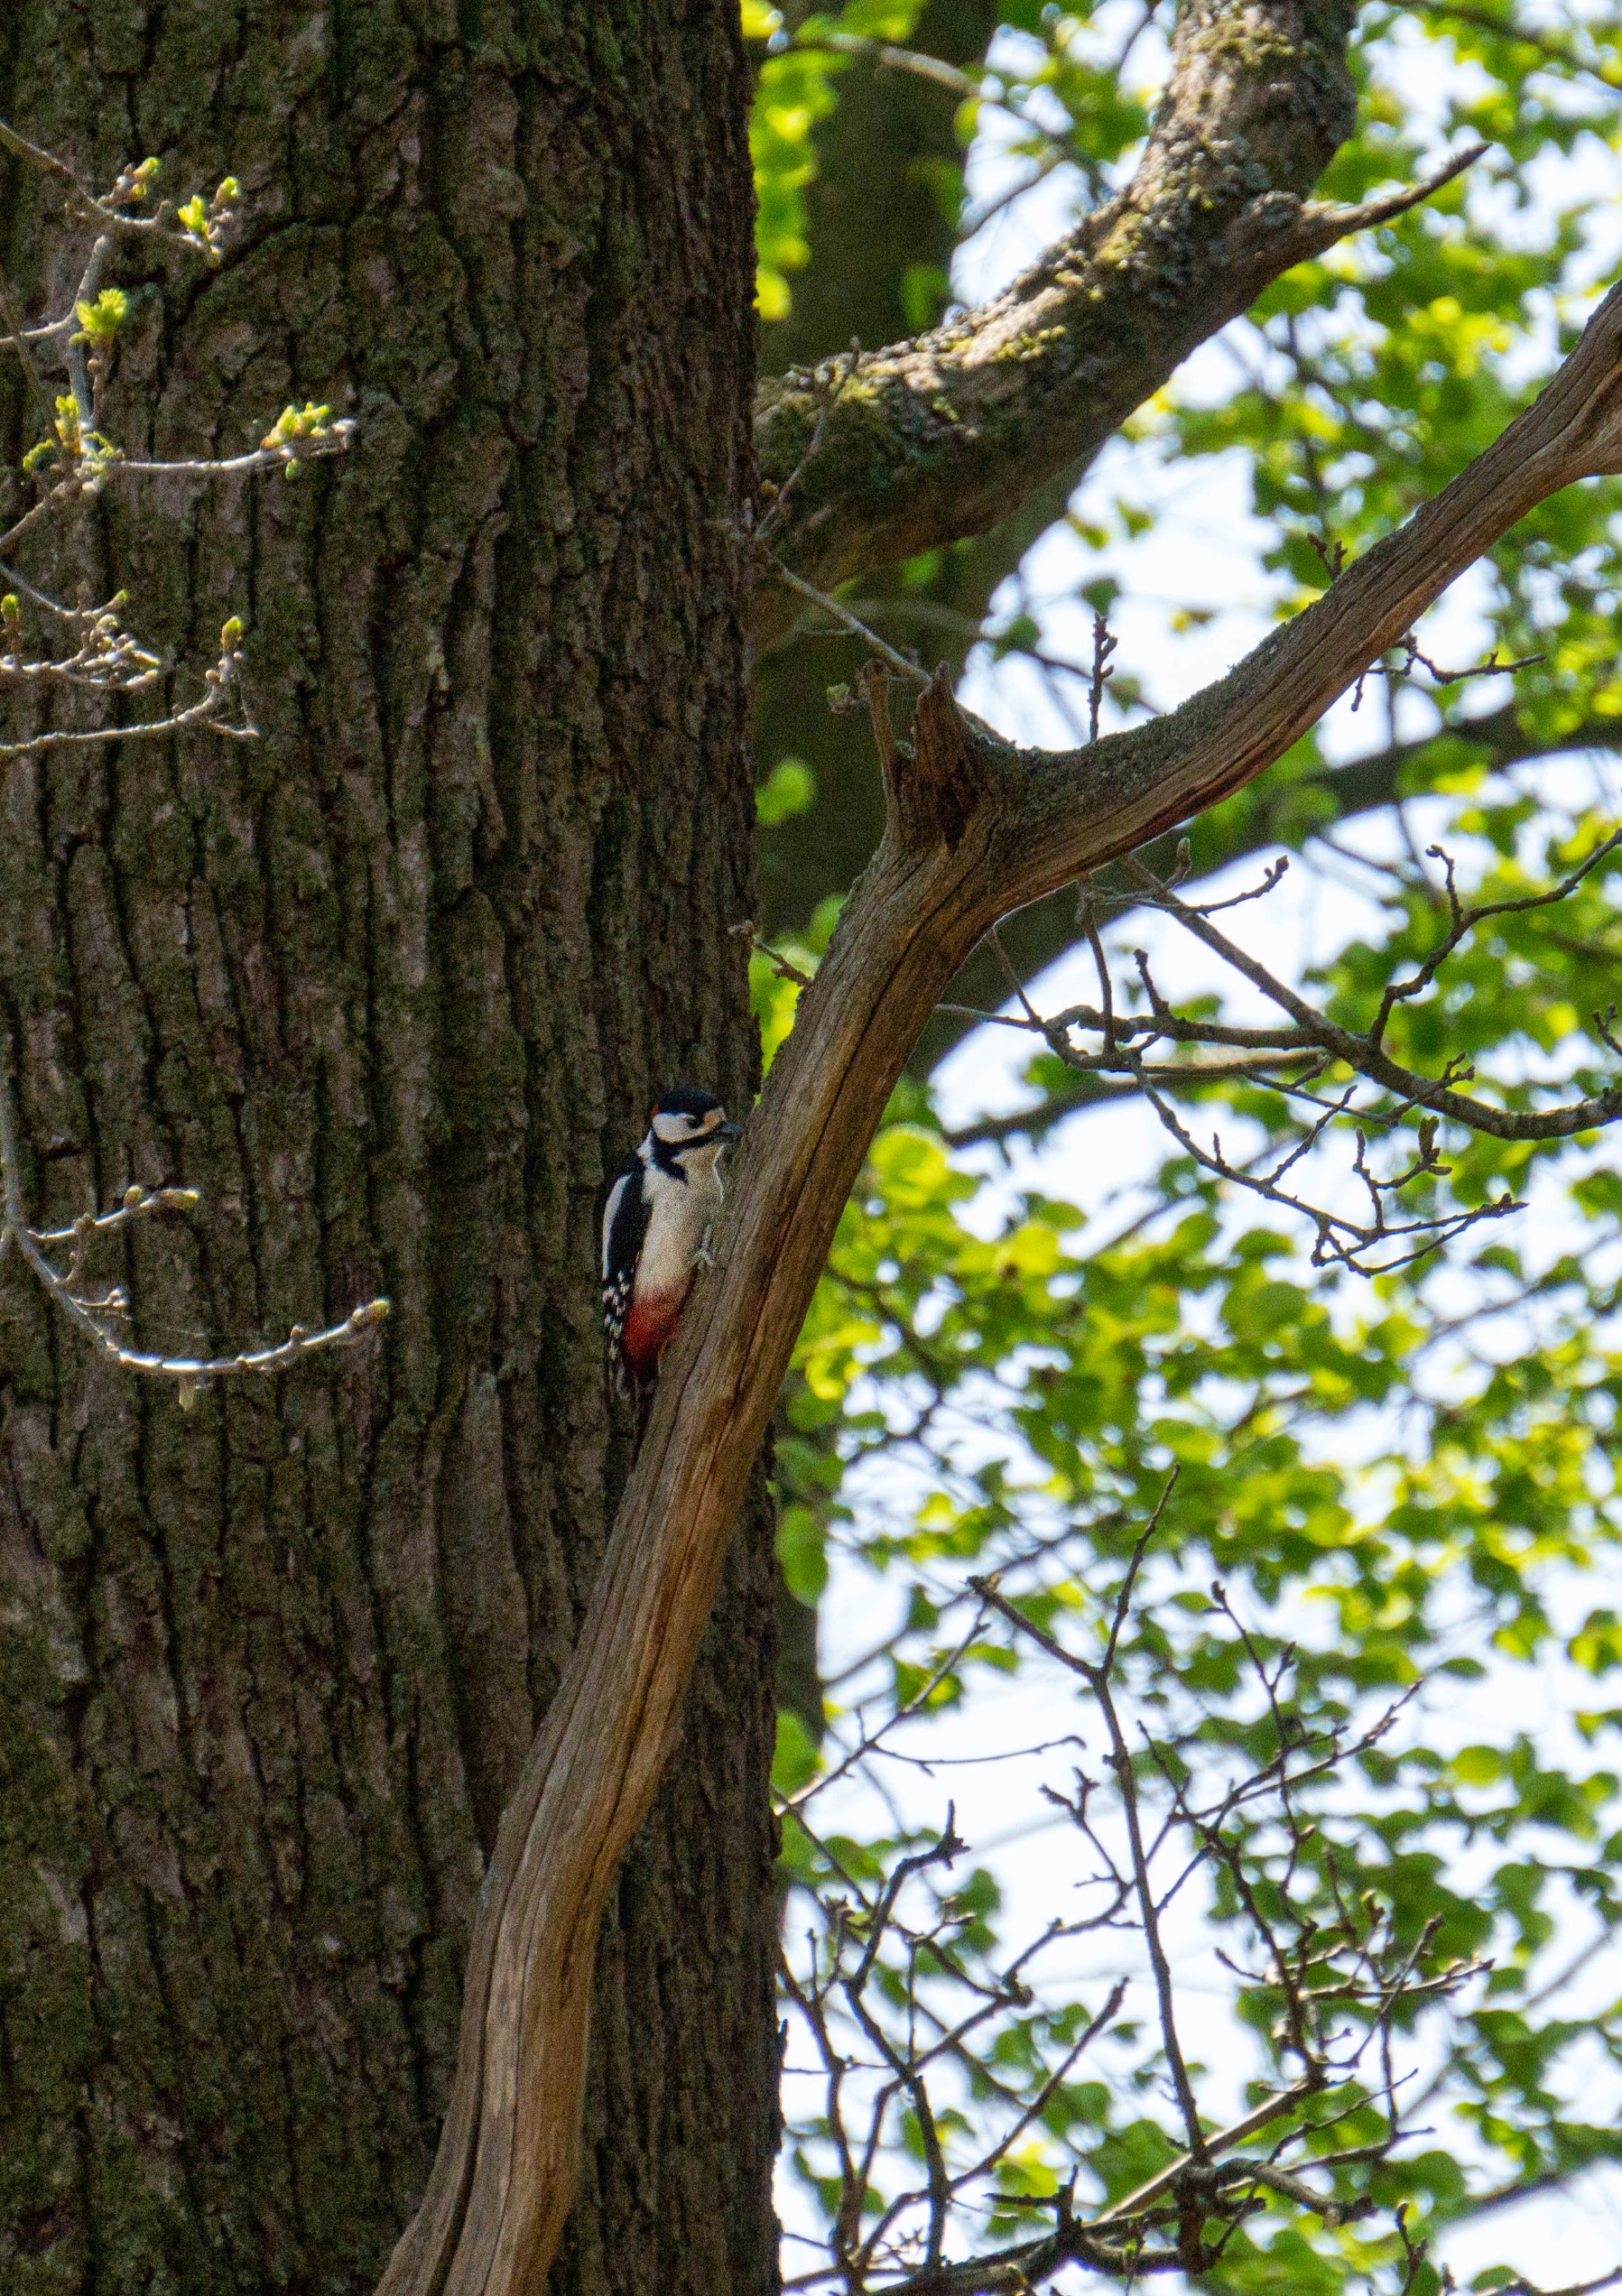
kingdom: Animalia
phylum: Chordata
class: Aves
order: Piciformes
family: Picidae
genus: Dendrocopos
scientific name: Dendrocopos major
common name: Stor flagspætte
